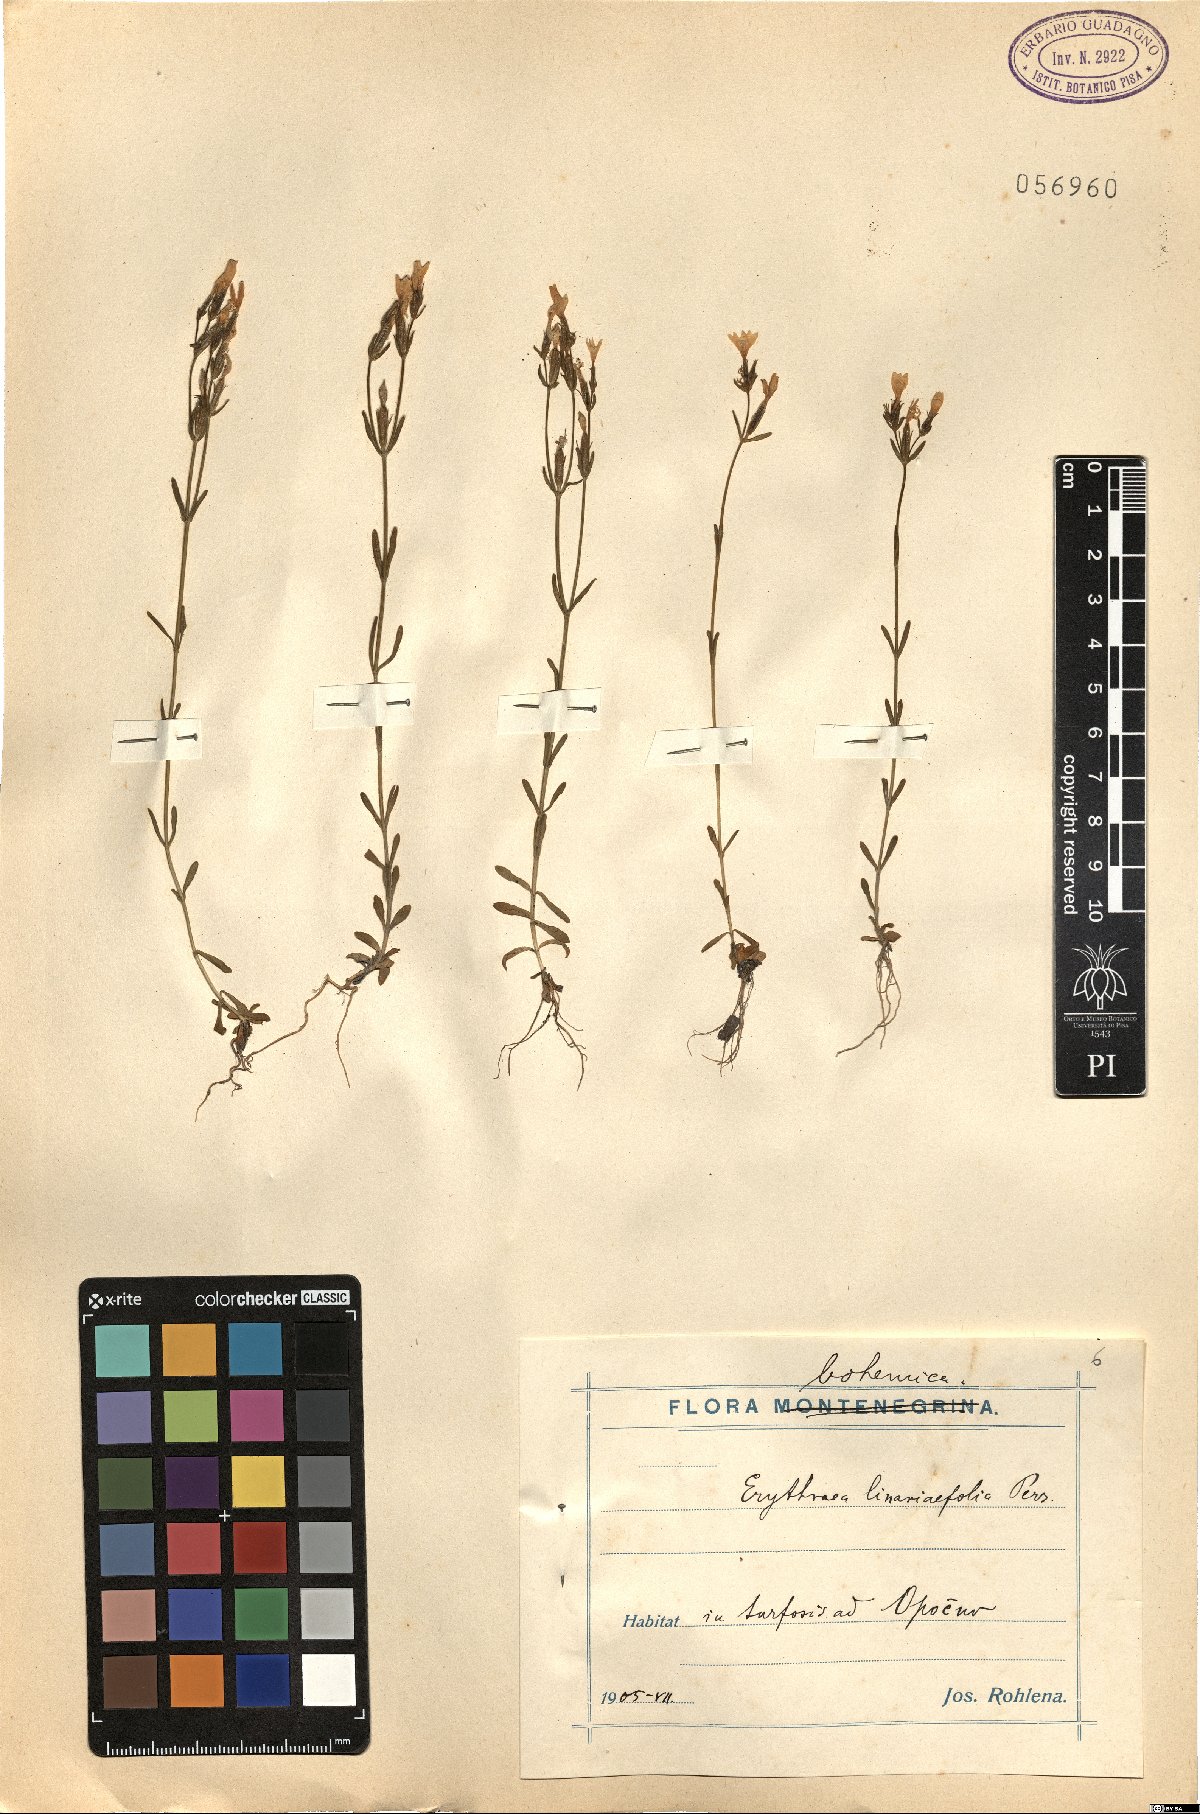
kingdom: Plantae
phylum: Tracheophyta
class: Magnoliopsida
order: Gentianales
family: Gentianaceae
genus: Centaurium
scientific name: Centaurium quadrifolium
